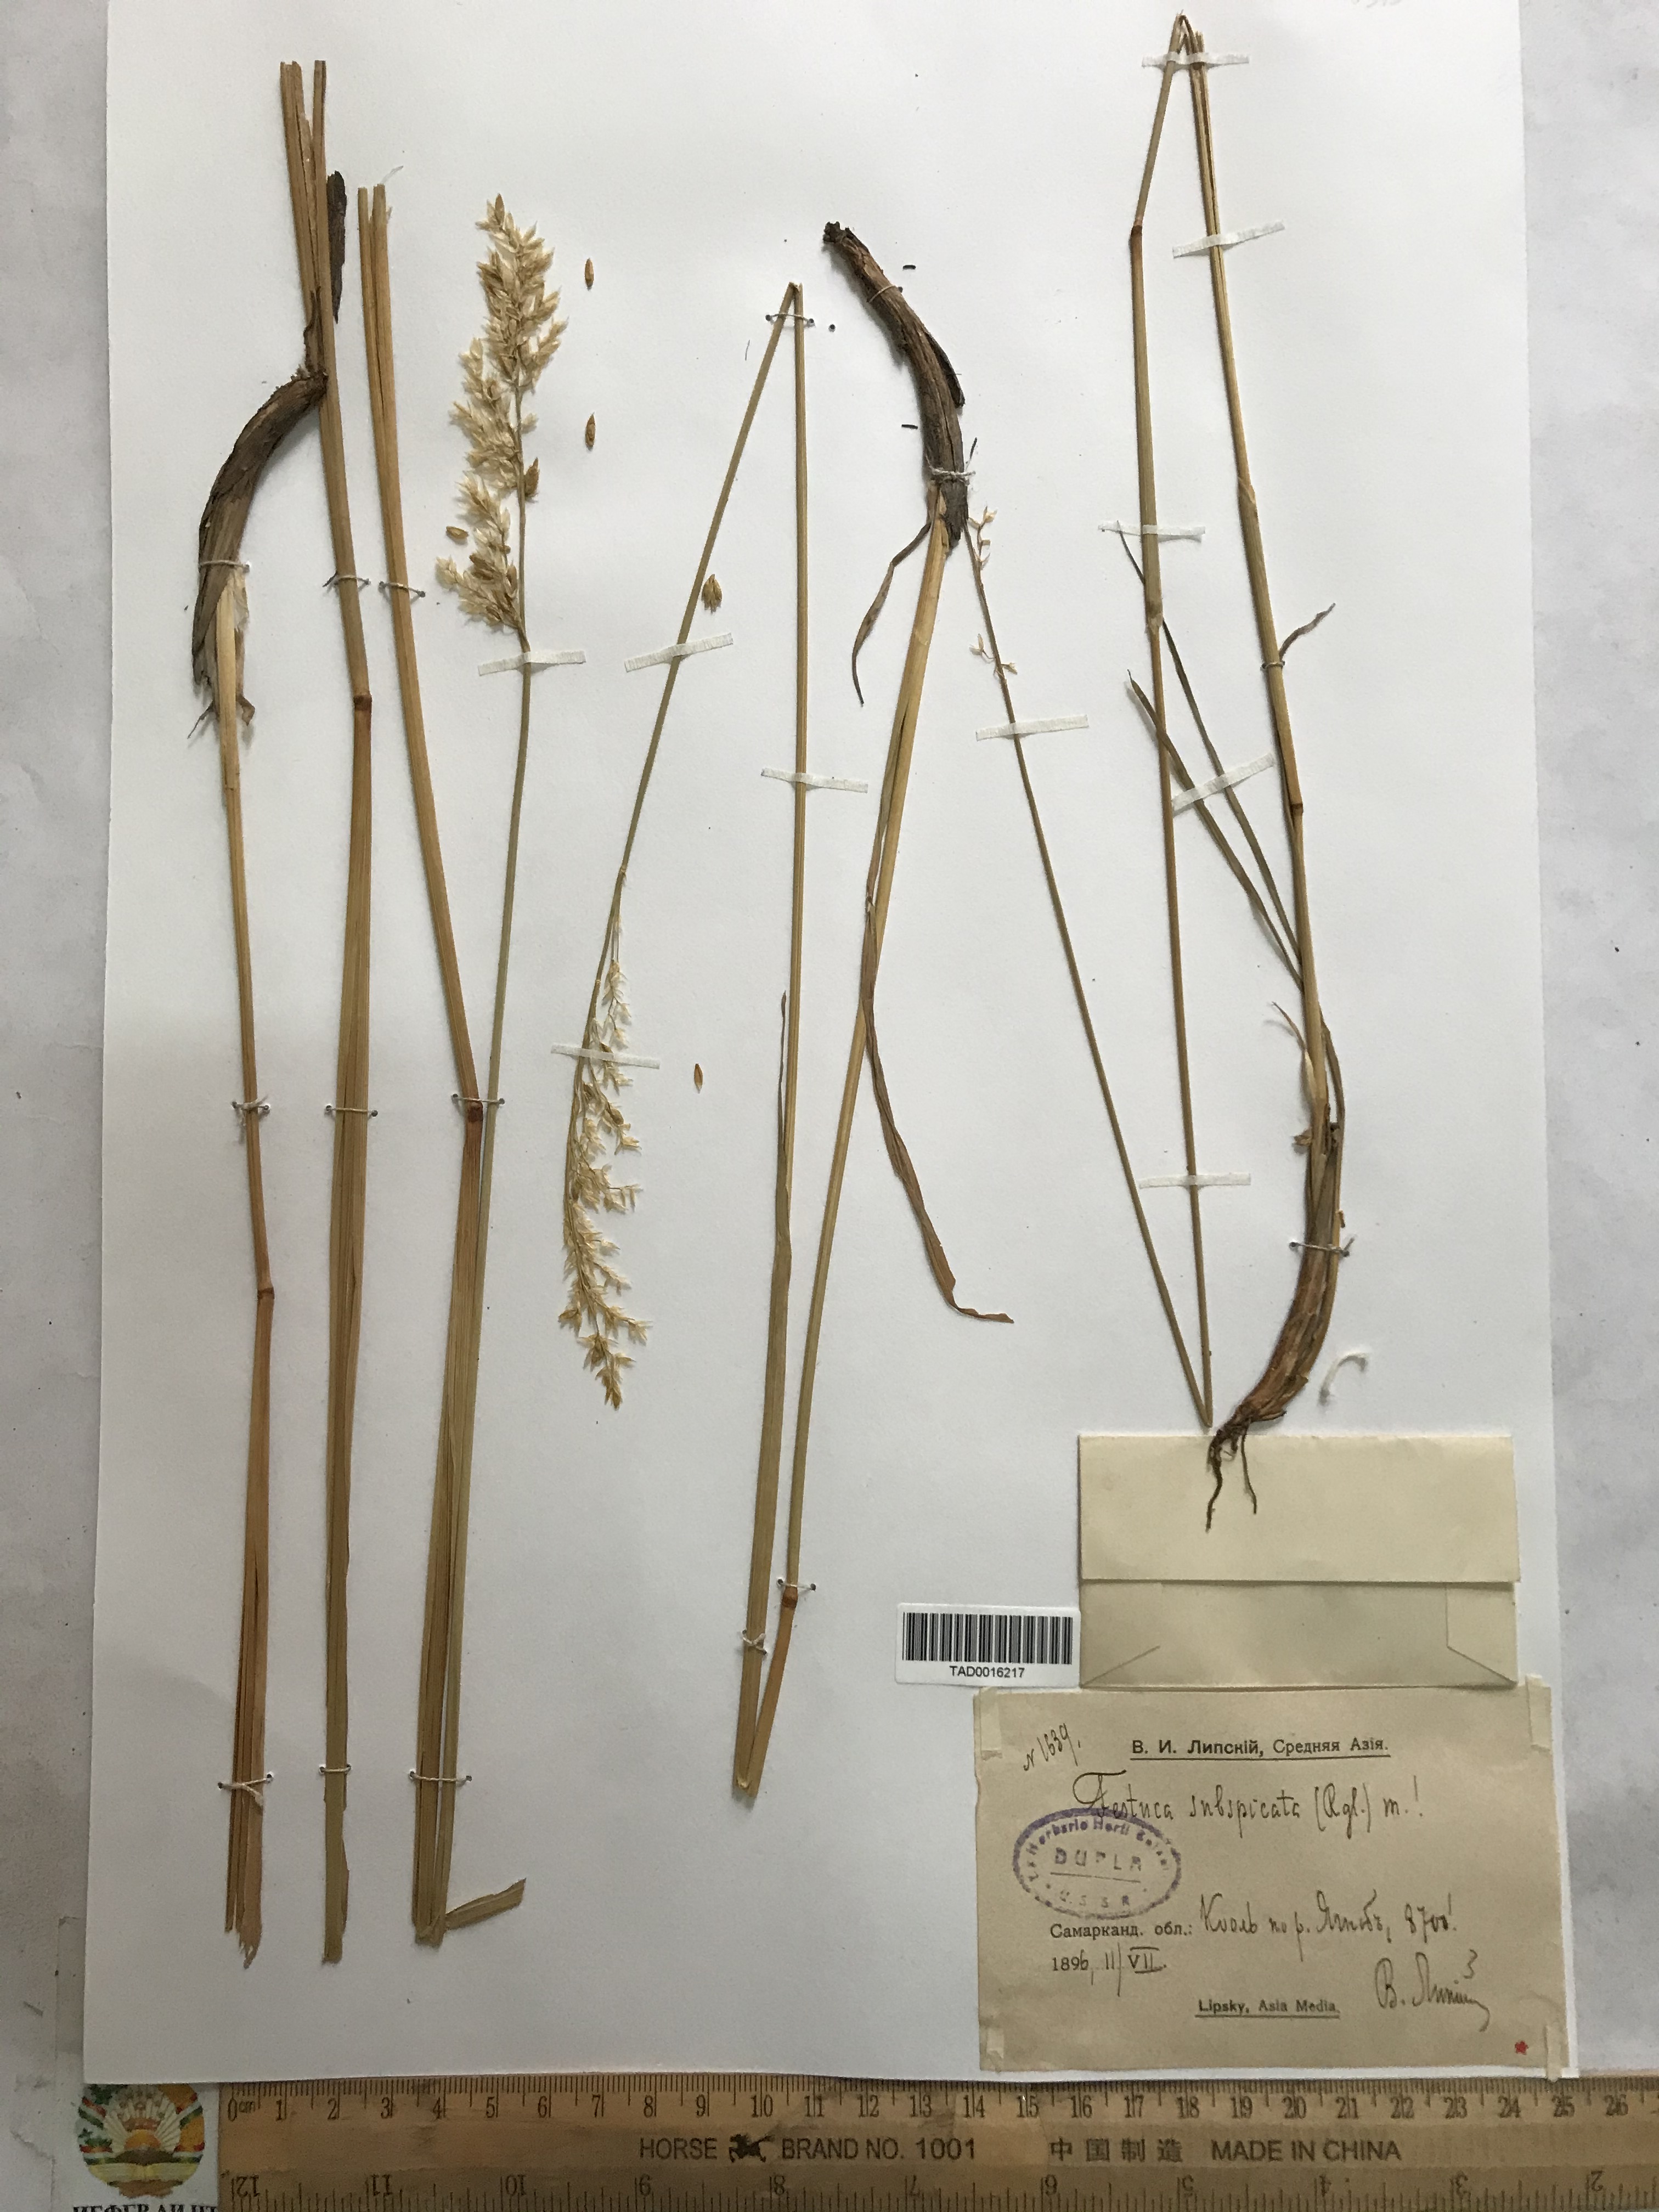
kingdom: Plantae
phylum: Tracheophyta
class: Liliopsida
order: Poales
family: Poaceae
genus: Festuca
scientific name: Festuca karatavica
